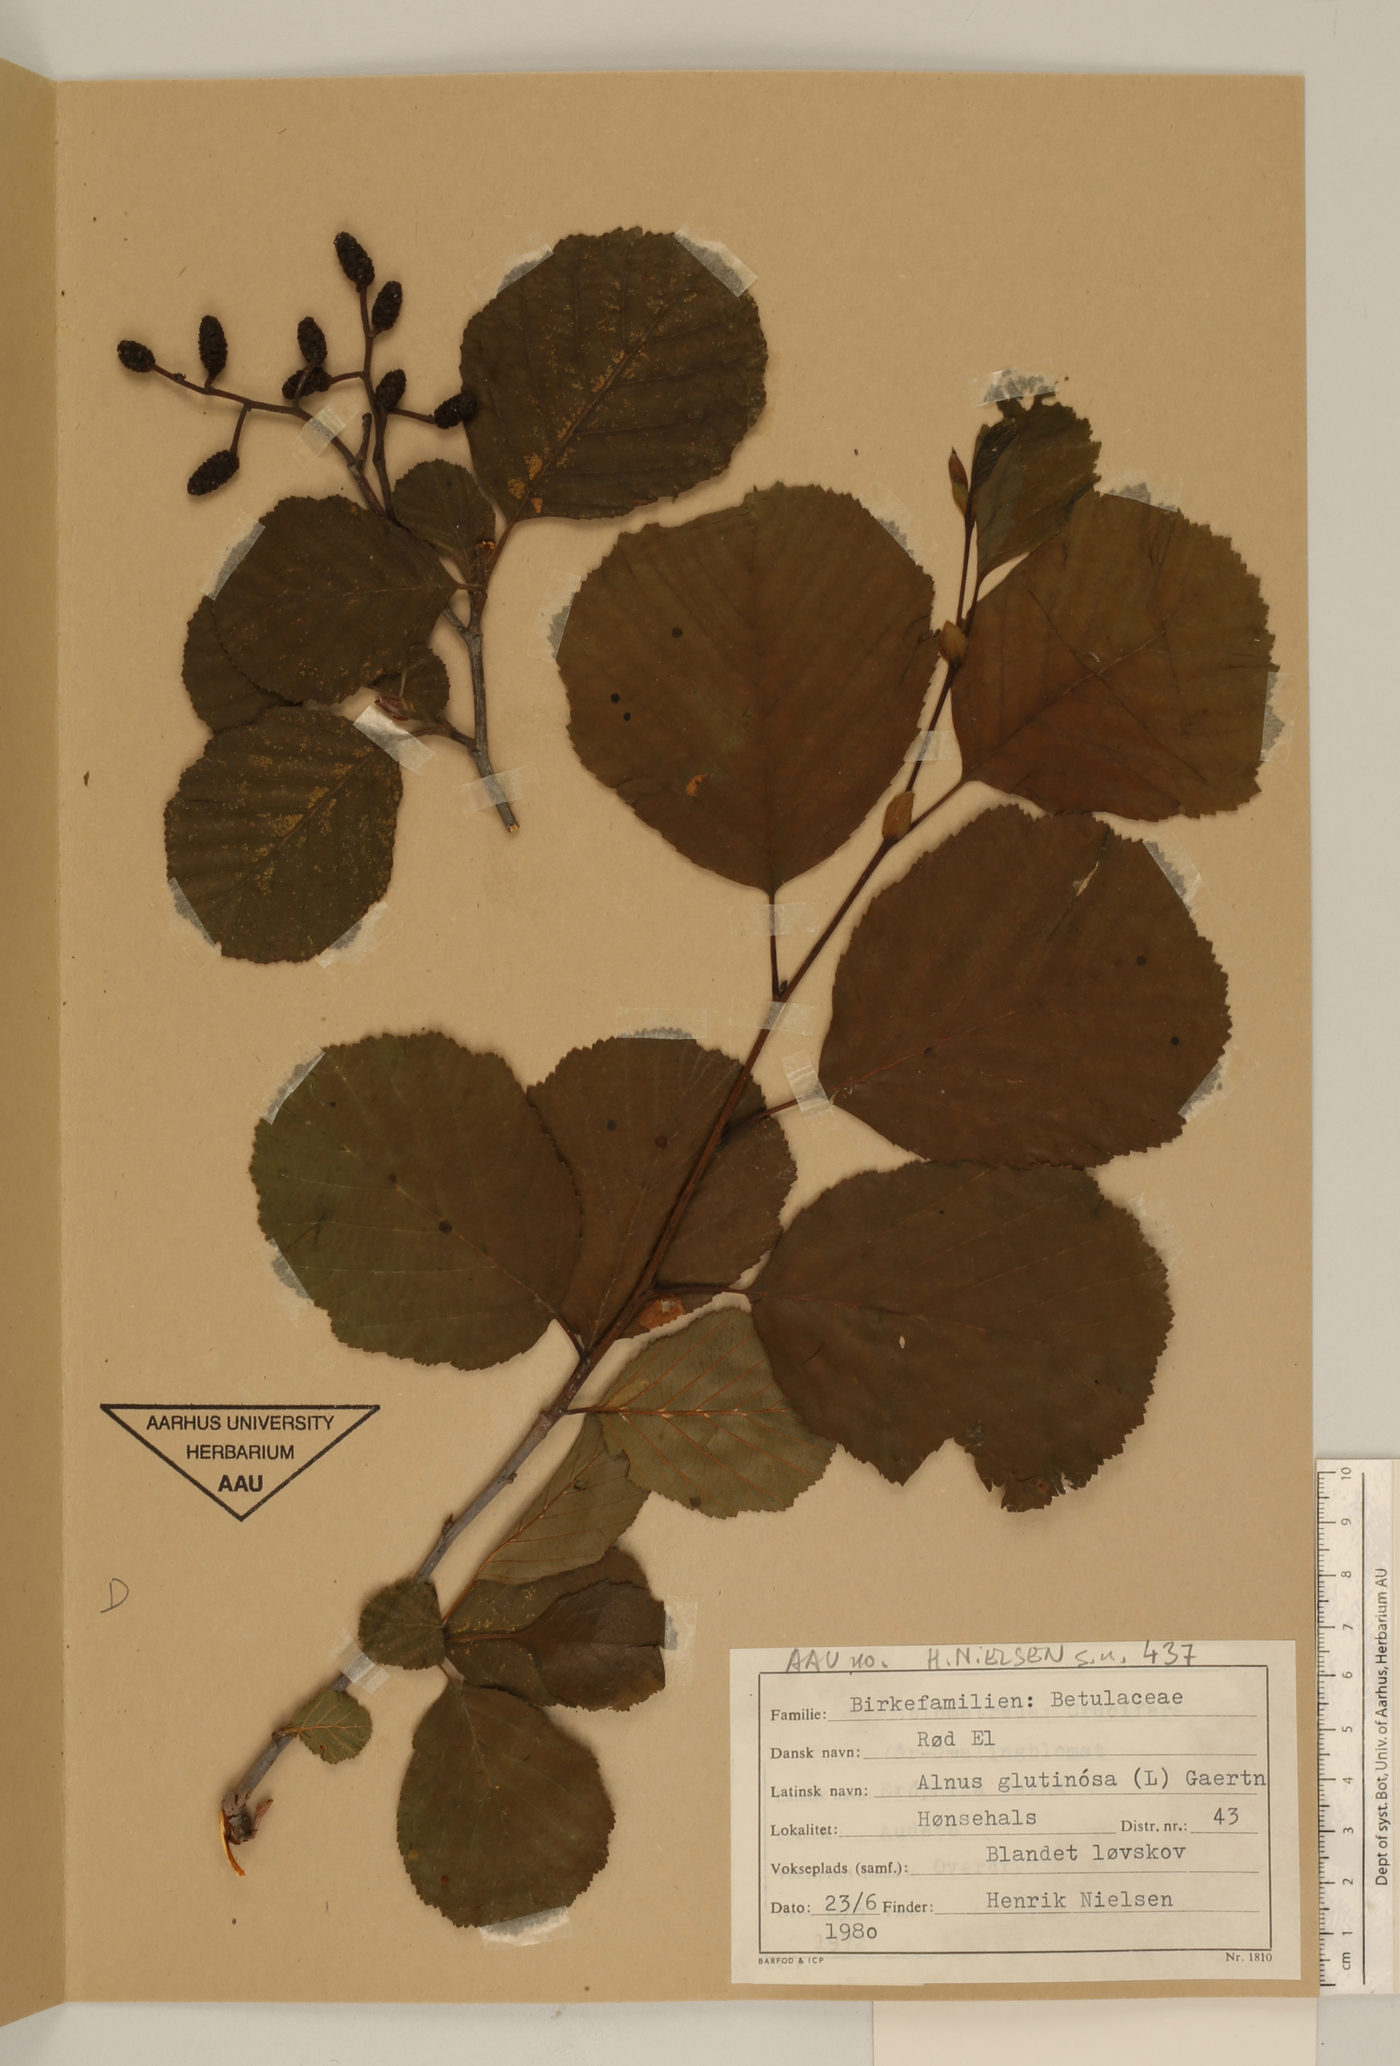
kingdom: Plantae
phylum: Tracheophyta
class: Magnoliopsida
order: Fagales
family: Betulaceae
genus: Alnus
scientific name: Alnus glutinosa
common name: Black alder
